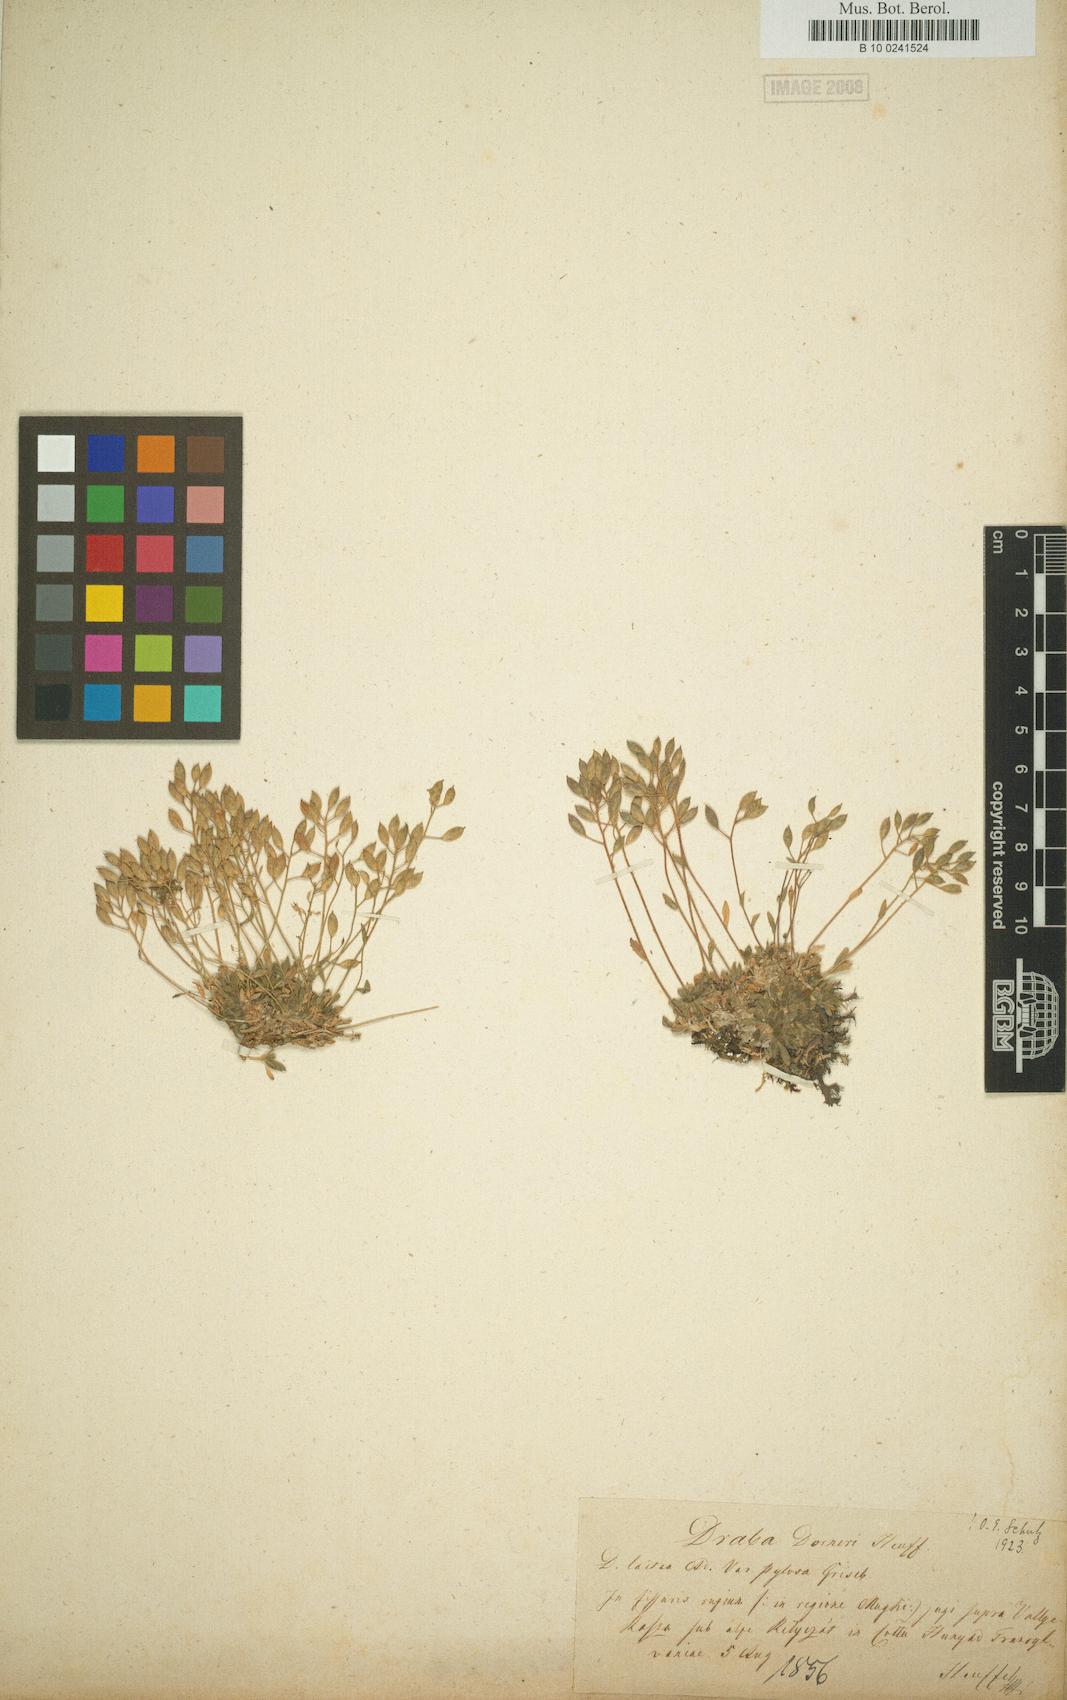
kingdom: Plantae
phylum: Tracheophyta
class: Magnoliopsida
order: Brassicales
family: Brassicaceae
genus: Draba
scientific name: Draba dorneri
